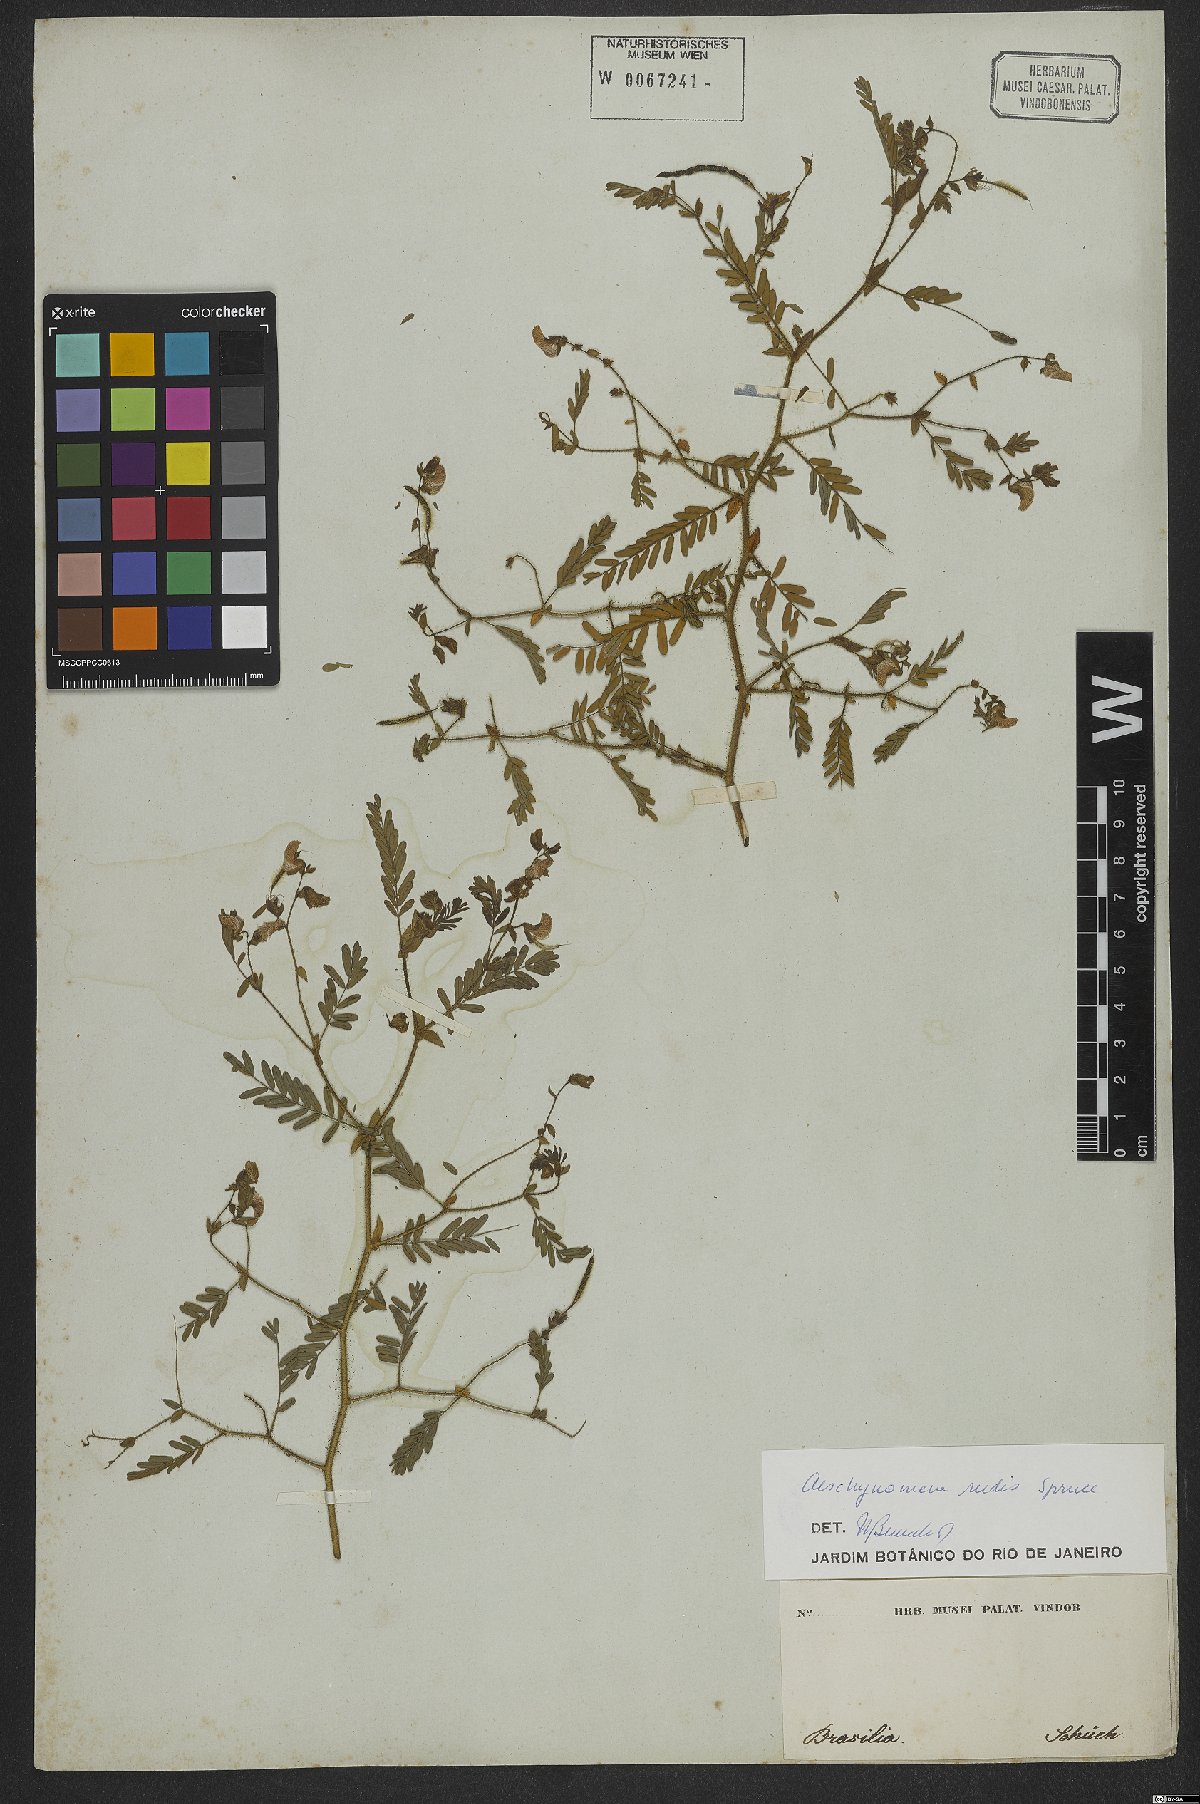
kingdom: Plantae
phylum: Tracheophyta
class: Magnoliopsida
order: Fabales
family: Fabaceae
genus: Aeschynomene
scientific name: Aeschynomene rudis
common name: Rough joint-vetch
